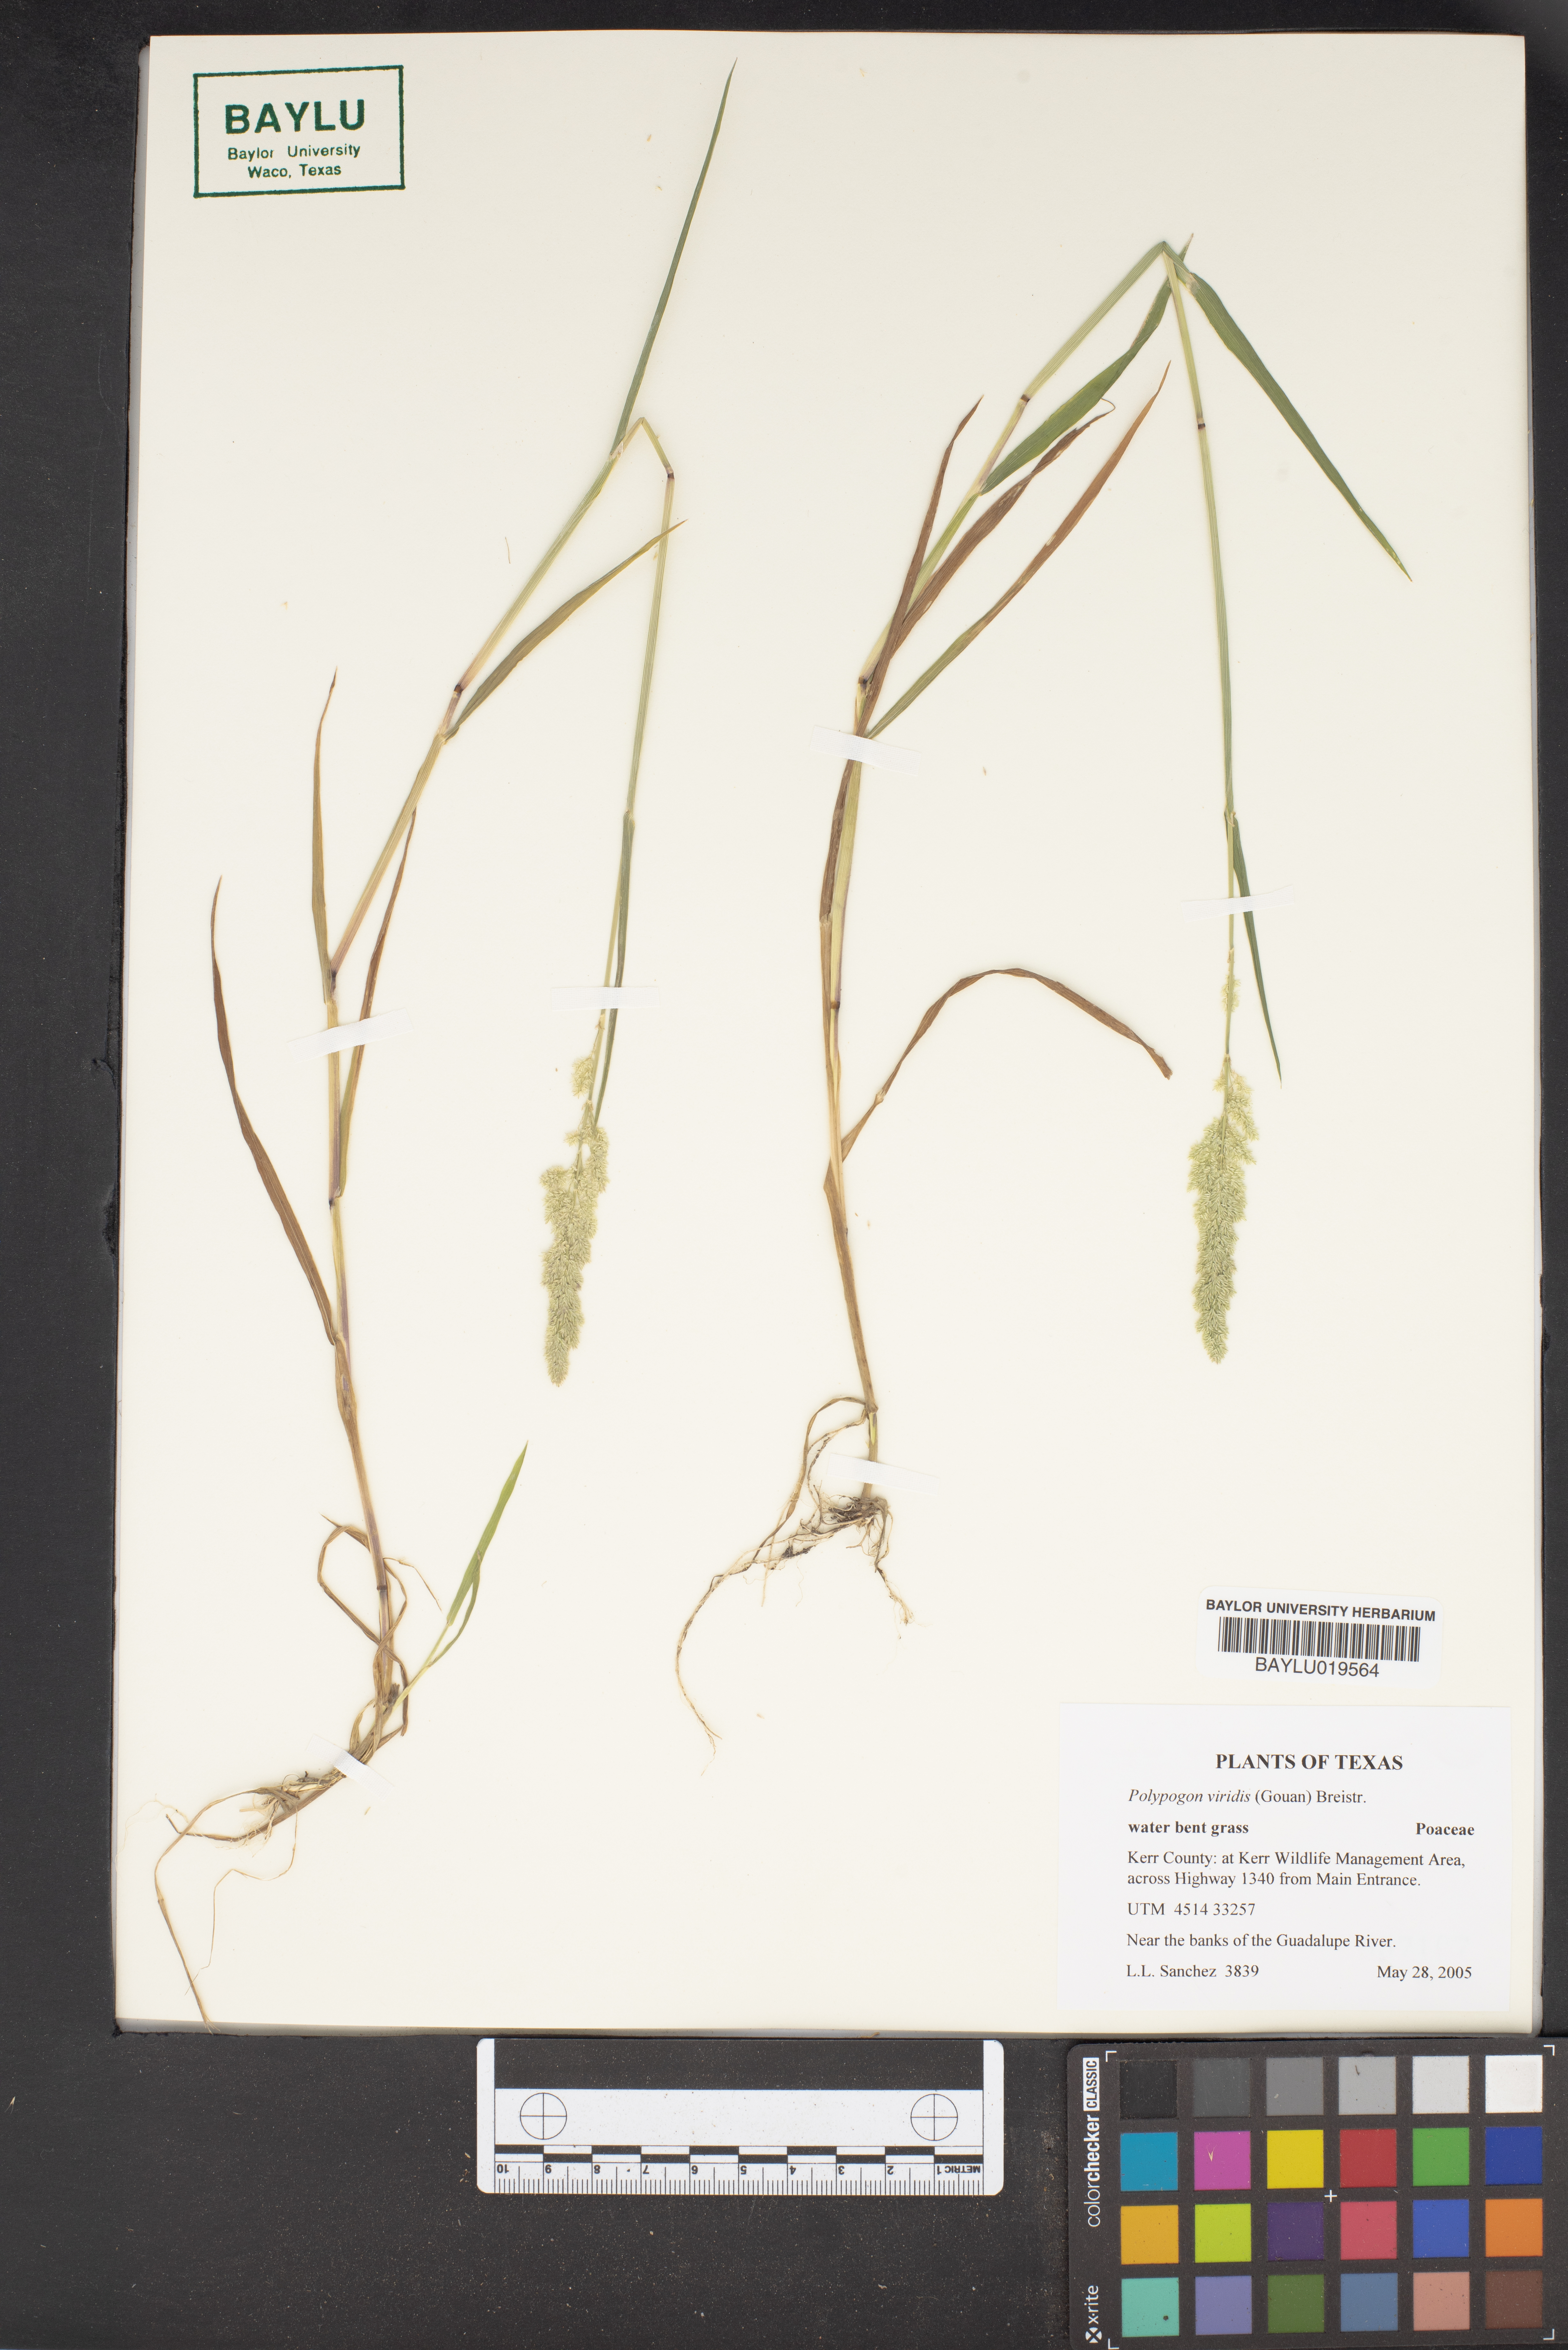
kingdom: Plantae
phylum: Tracheophyta
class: Liliopsida
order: Poales
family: Poaceae
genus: Polypogon
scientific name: Polypogon viridis
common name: Water bent
